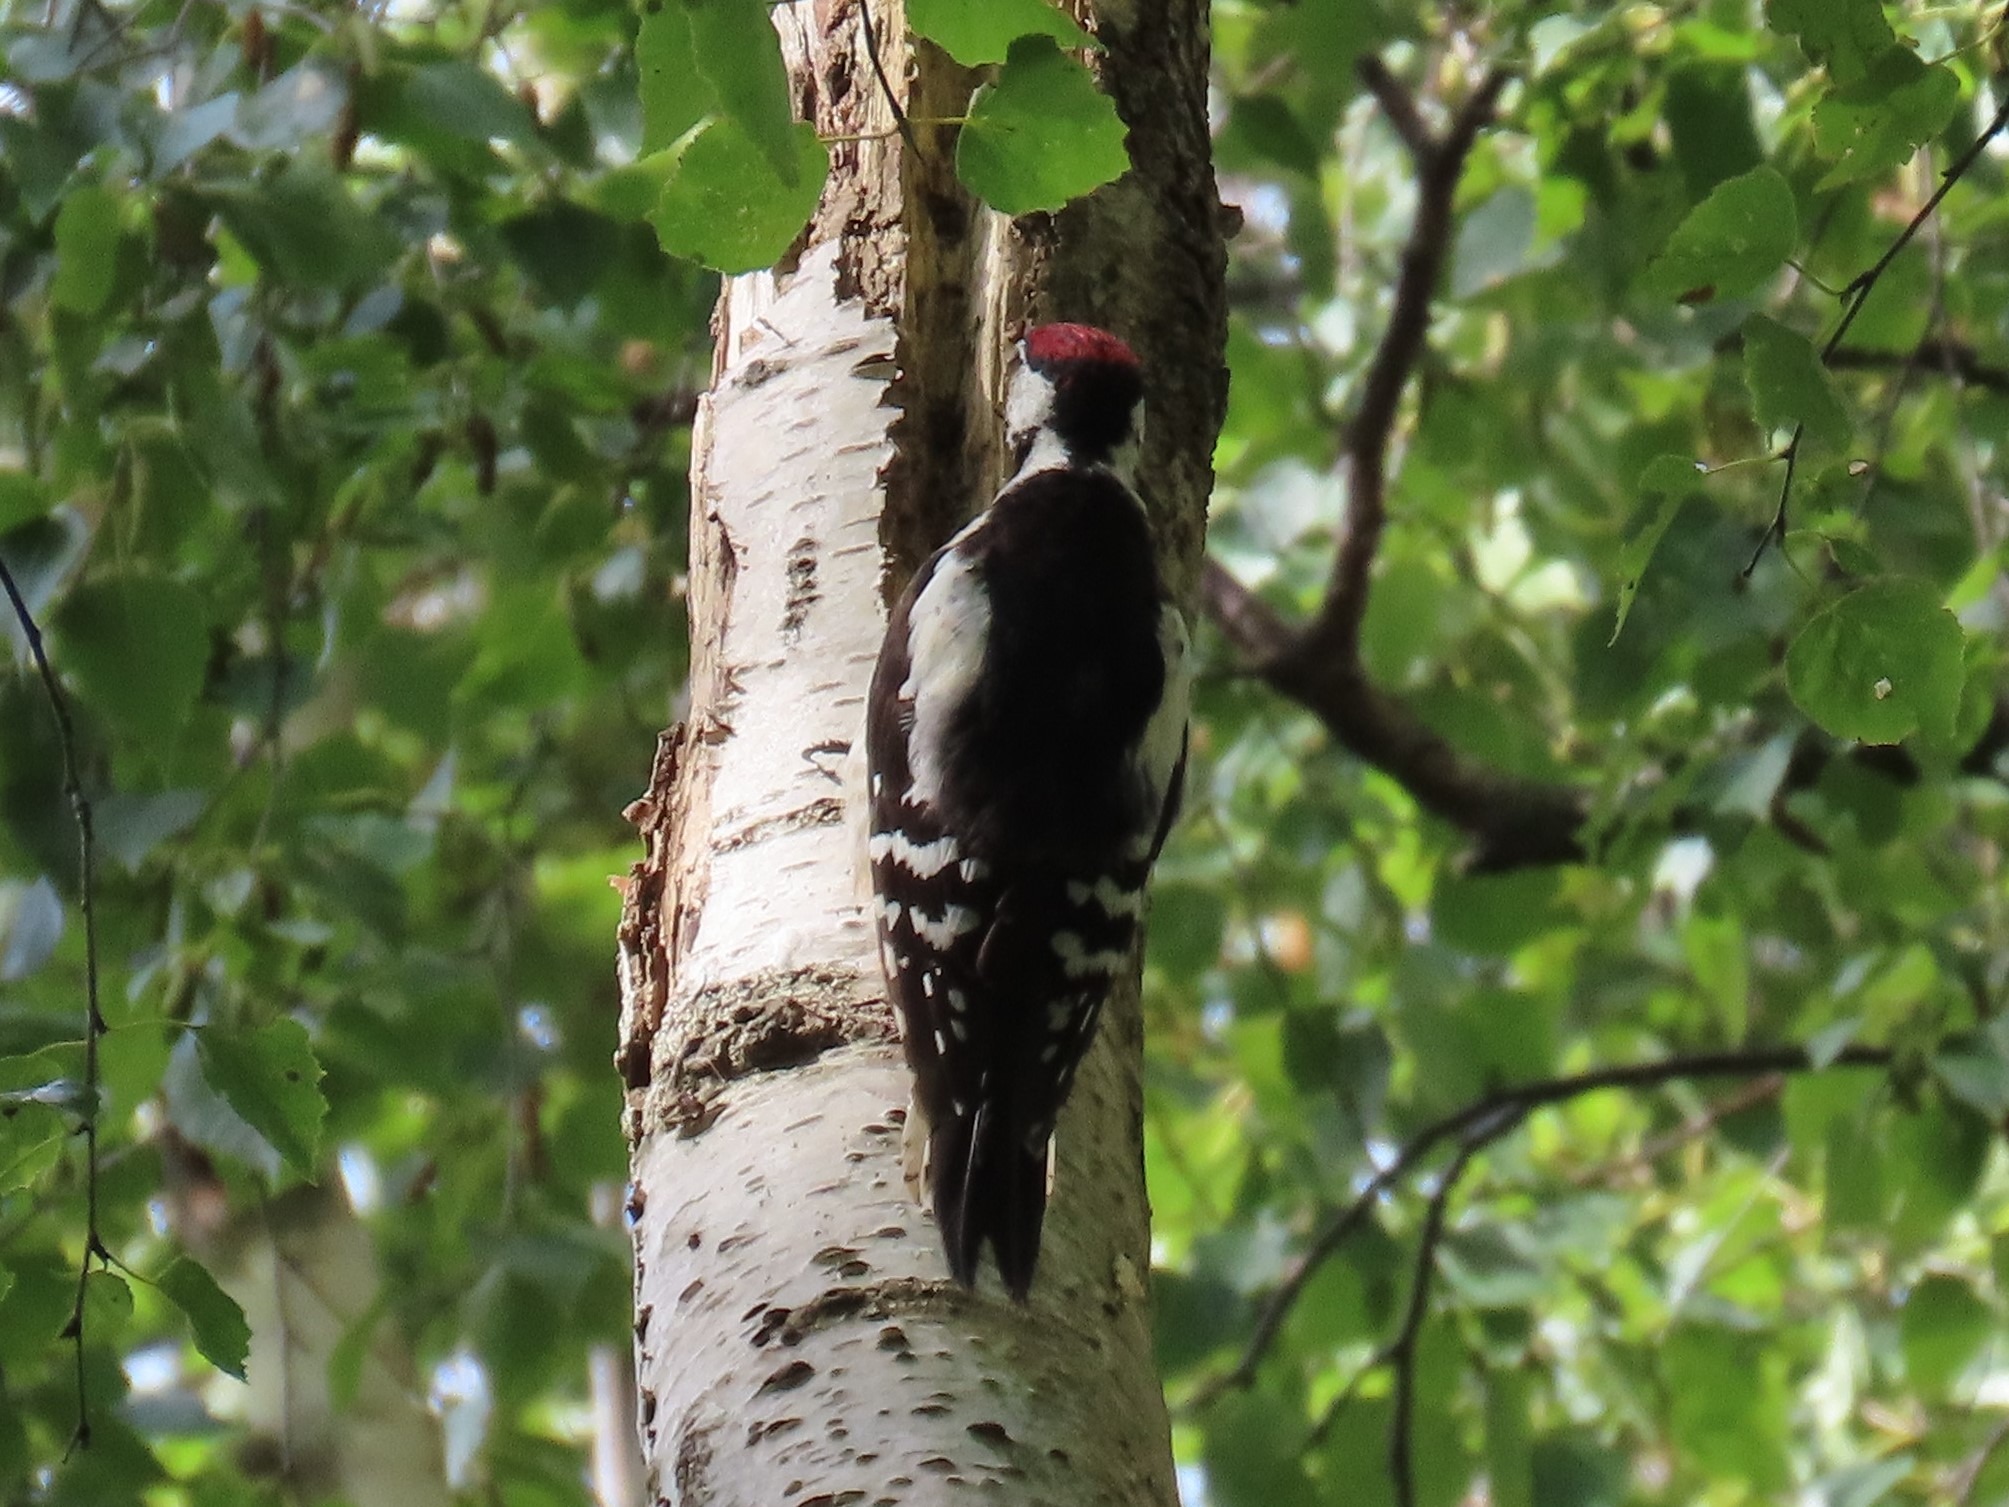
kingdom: Animalia
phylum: Chordata
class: Aves
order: Piciformes
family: Picidae
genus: Dendrocopos
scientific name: Dendrocopos major
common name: Stor flagspætte
